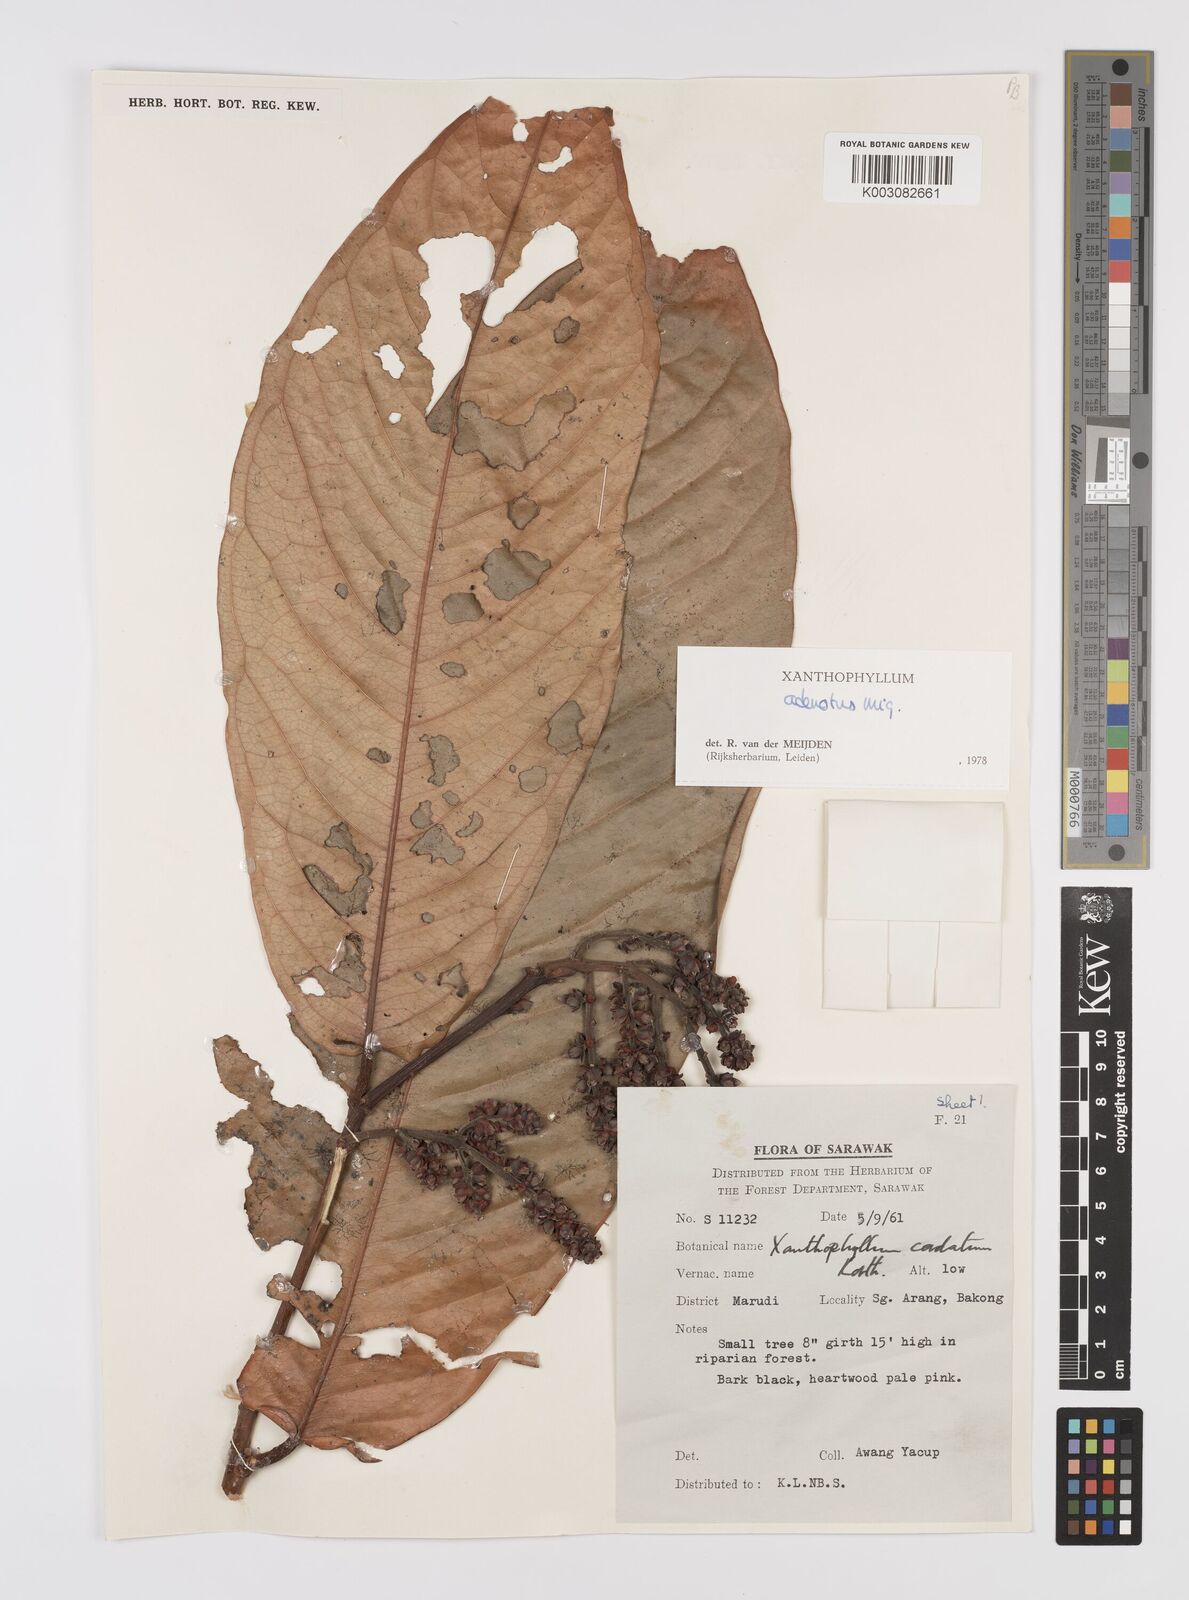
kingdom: Plantae
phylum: Tracheophyta
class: Magnoliopsida
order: Fabales
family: Polygalaceae
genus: Xanthophyllum
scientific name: Xanthophyllum adenotus
